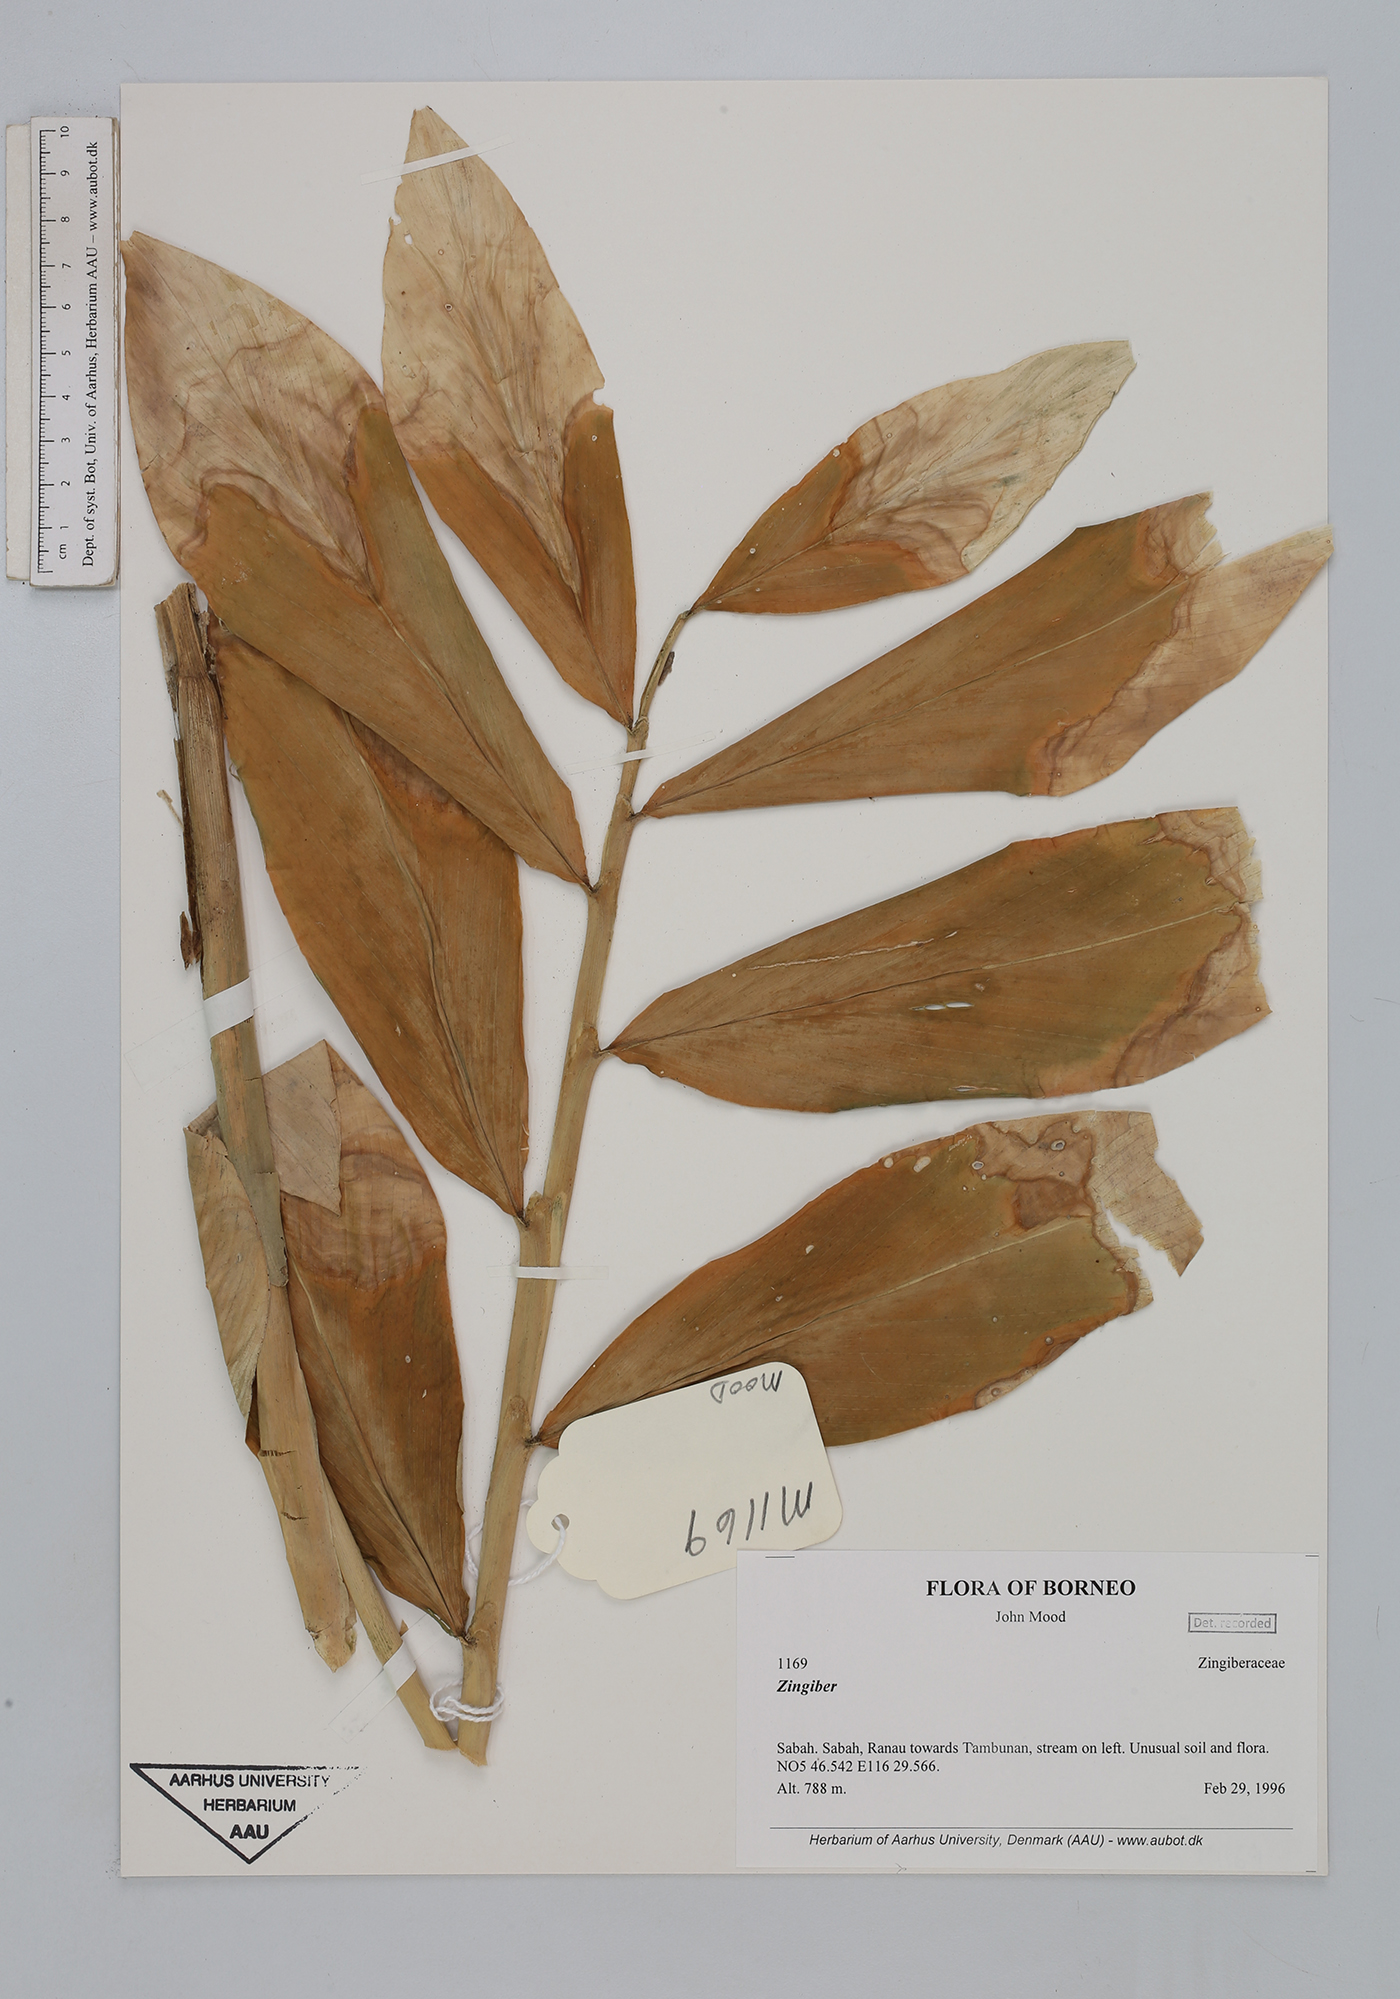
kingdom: Plantae
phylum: Tracheophyta
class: Liliopsida
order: Zingiberales
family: Zingiberaceae
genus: Zingiber
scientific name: Zingiber
